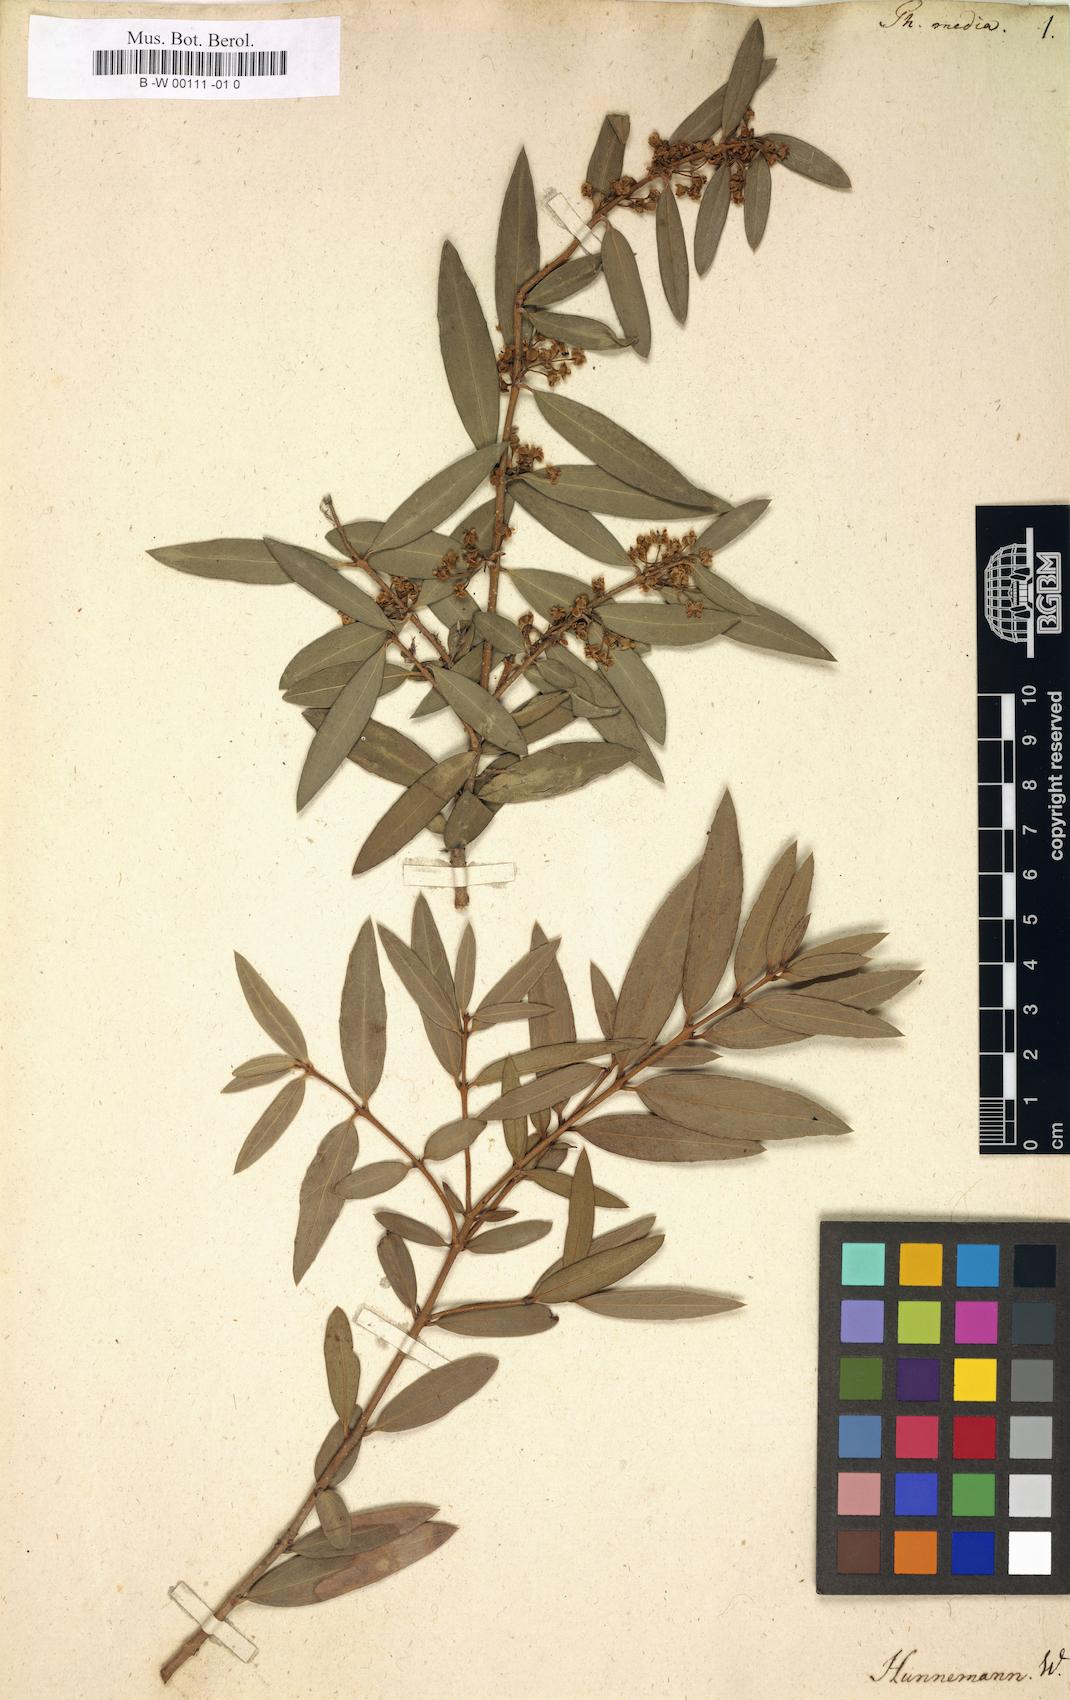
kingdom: Plantae
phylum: Tracheophyta
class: Magnoliopsida
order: Lamiales
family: Oleaceae
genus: Phillyrea
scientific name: Phillyrea latifolia
